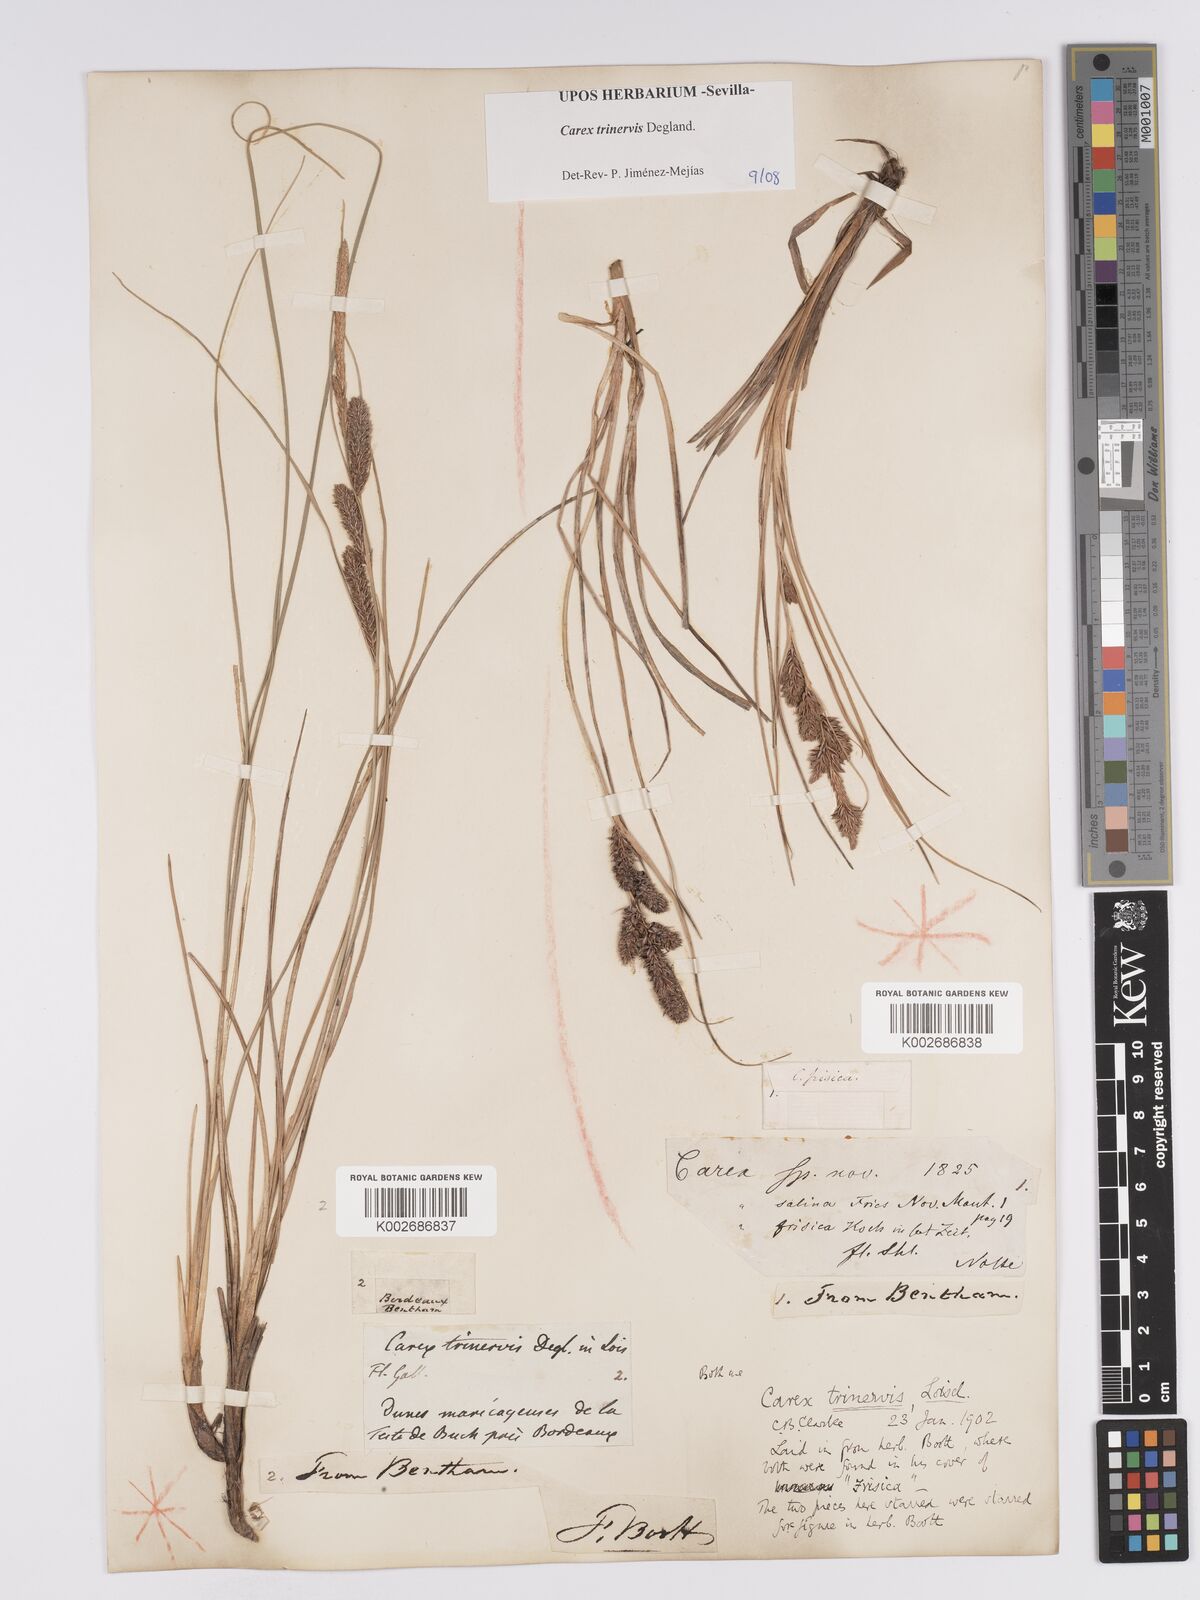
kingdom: Plantae
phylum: Tracheophyta
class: Liliopsida
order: Poales
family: Cyperaceae
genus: Carex
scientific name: Carex trinervis
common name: Three-nerved sedge
